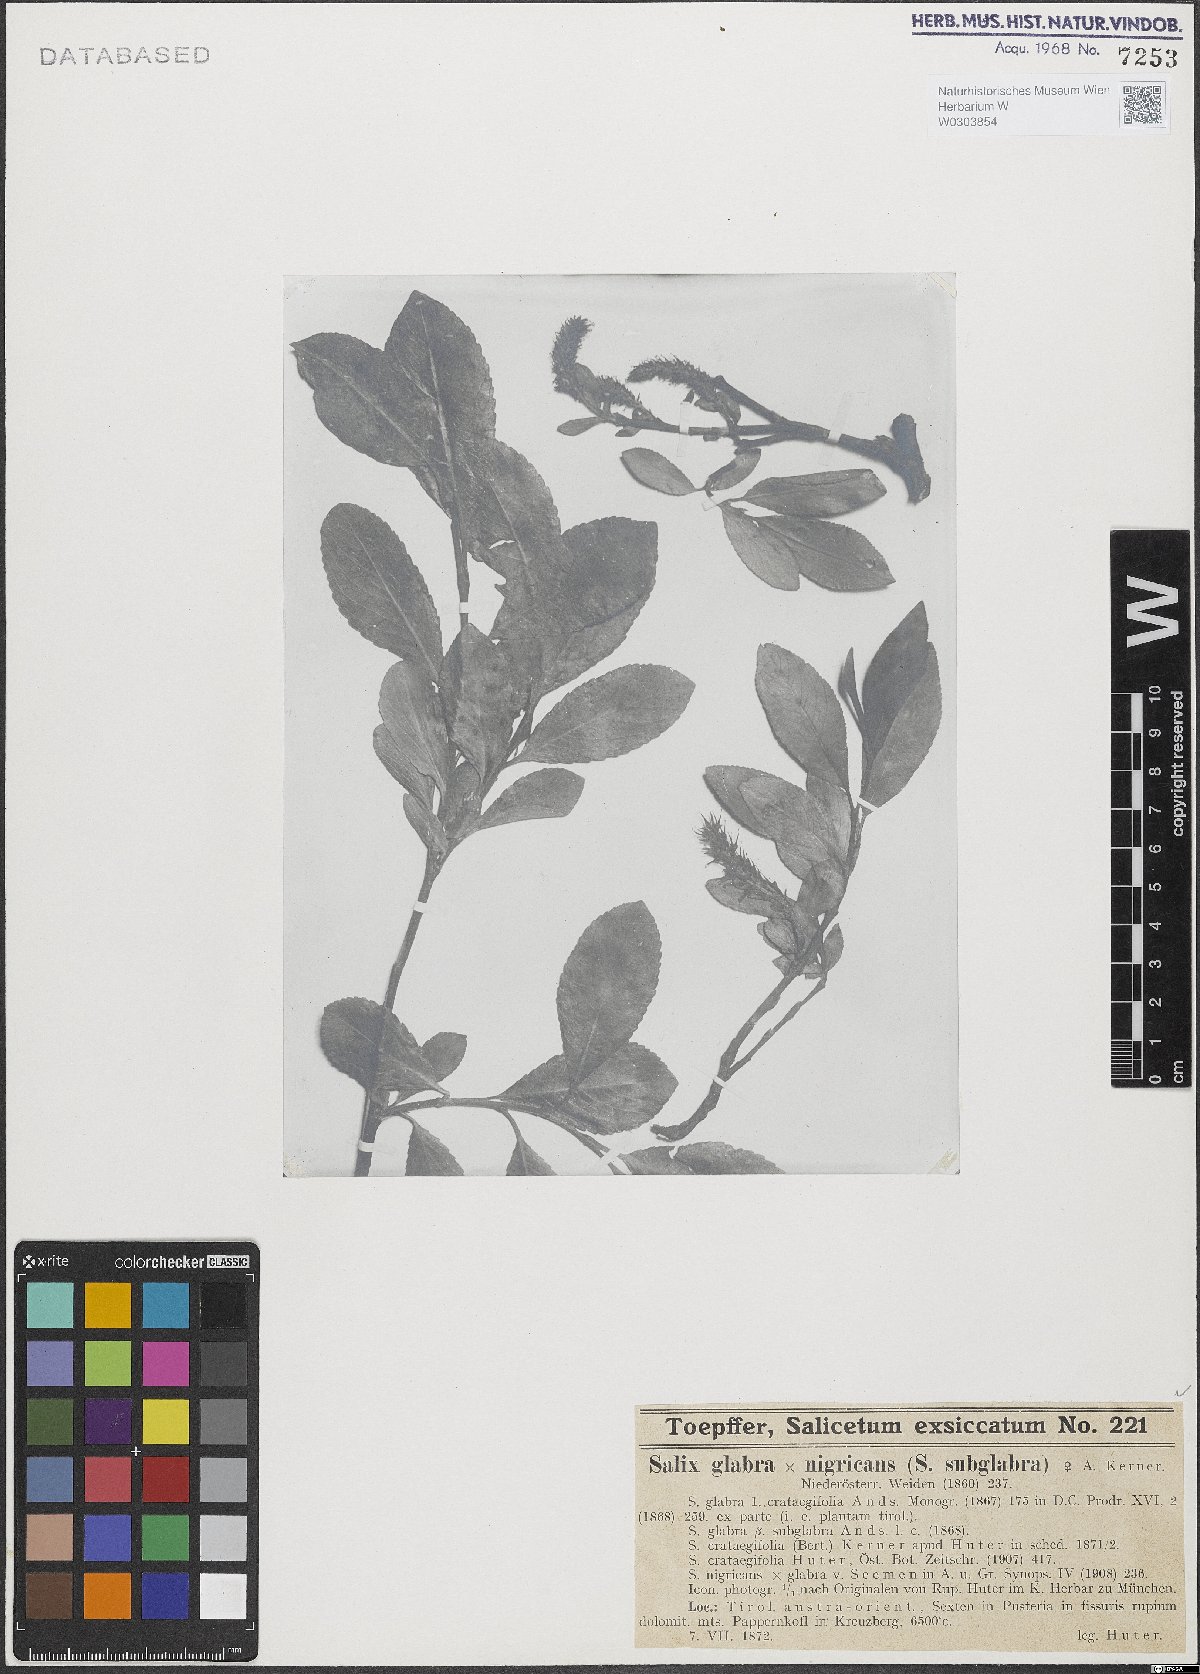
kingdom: Plantae
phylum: Tracheophyta
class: Magnoliopsida
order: Malpighiales
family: Salicaceae
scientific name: Salicaceae
